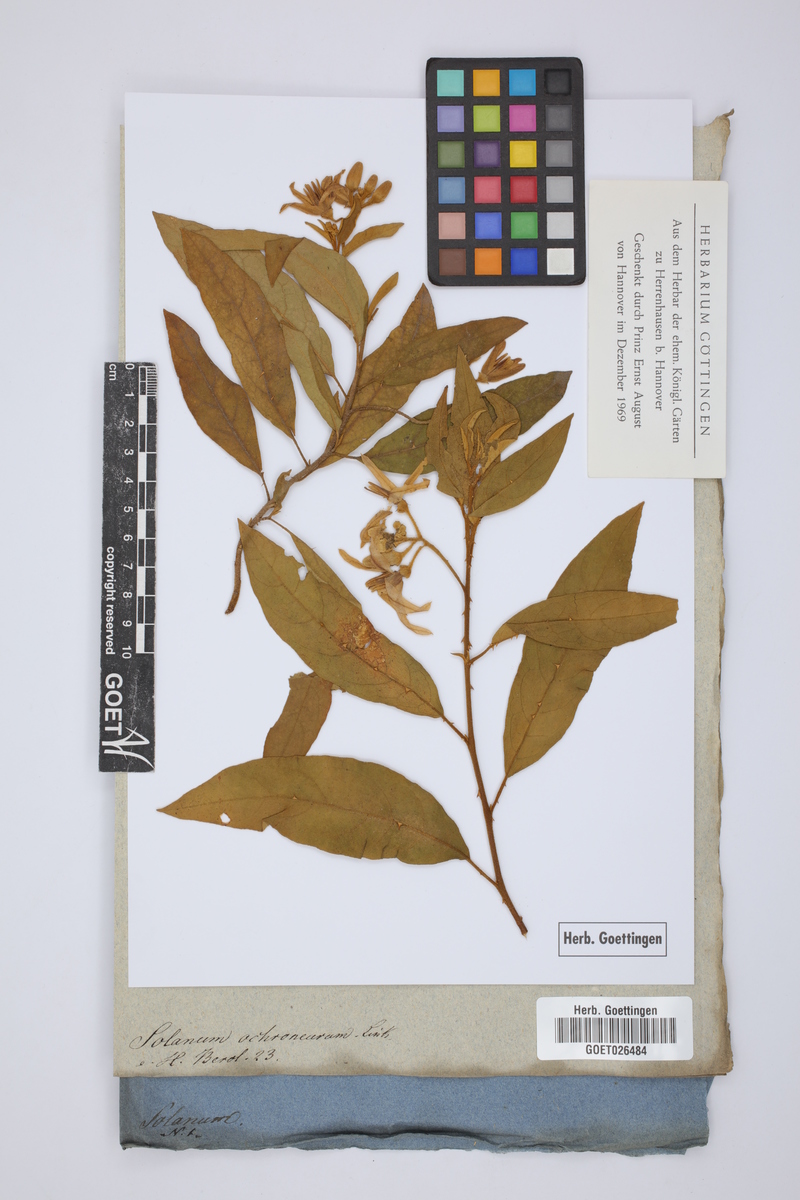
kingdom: Plantae
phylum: Tracheophyta
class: Magnoliopsida
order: Solanales
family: Solanaceae
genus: Solanum
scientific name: Solanum jussiaei
